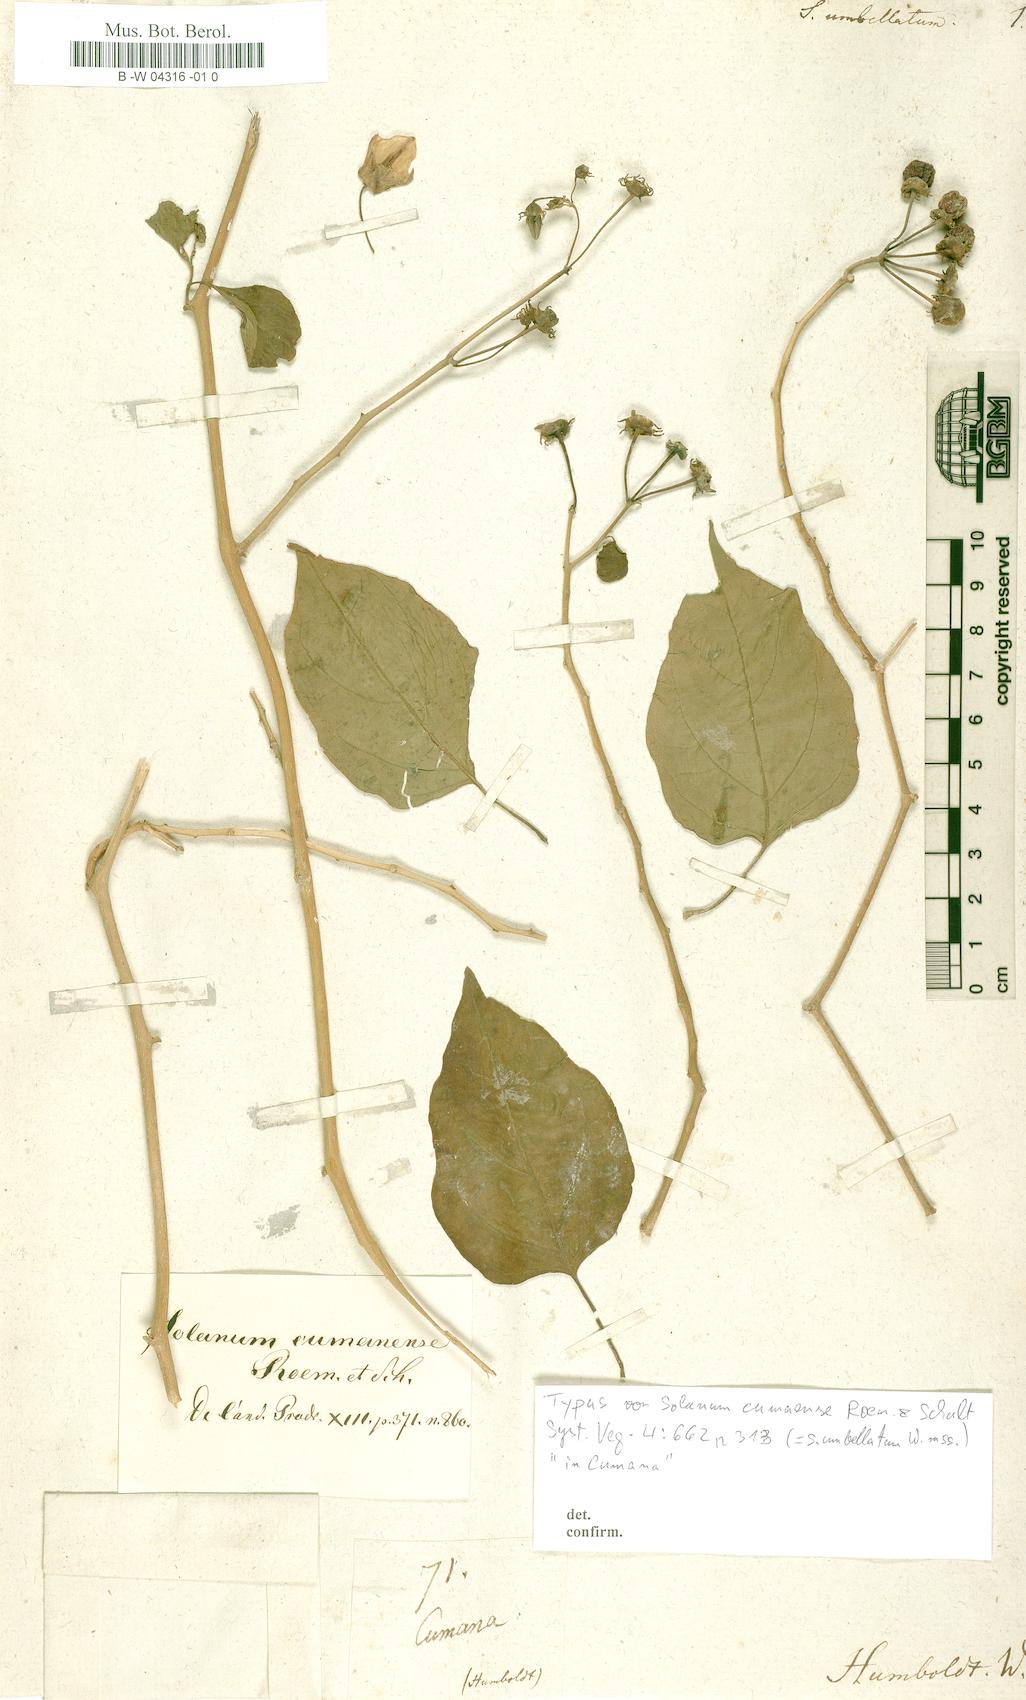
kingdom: Plantae
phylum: Tracheophyta
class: Magnoliopsida
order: Solanales
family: Solanaceae
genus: Lycianthes
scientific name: Lycianthes pauciflora
